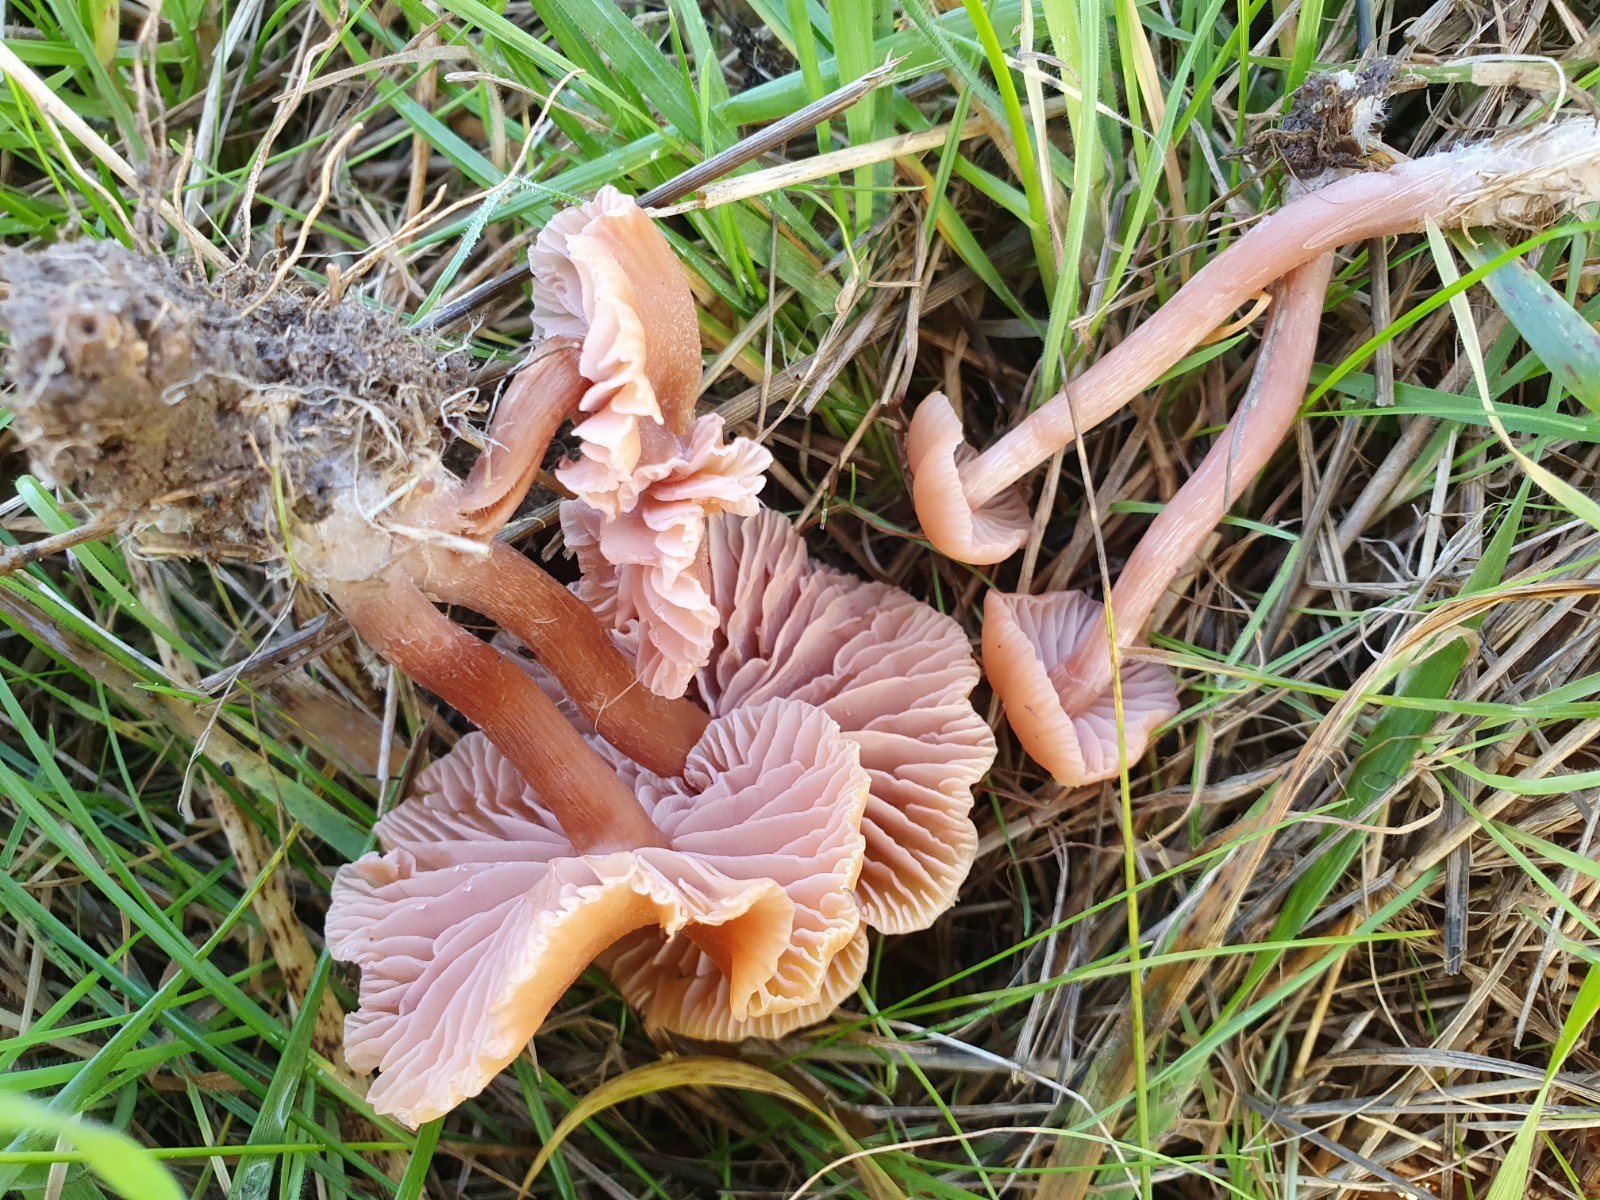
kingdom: Fungi
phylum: Basidiomycota
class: Agaricomycetes
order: Agaricales
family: Hydnangiaceae
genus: Laccaria
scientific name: Laccaria laccata
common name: rød ametysthat
